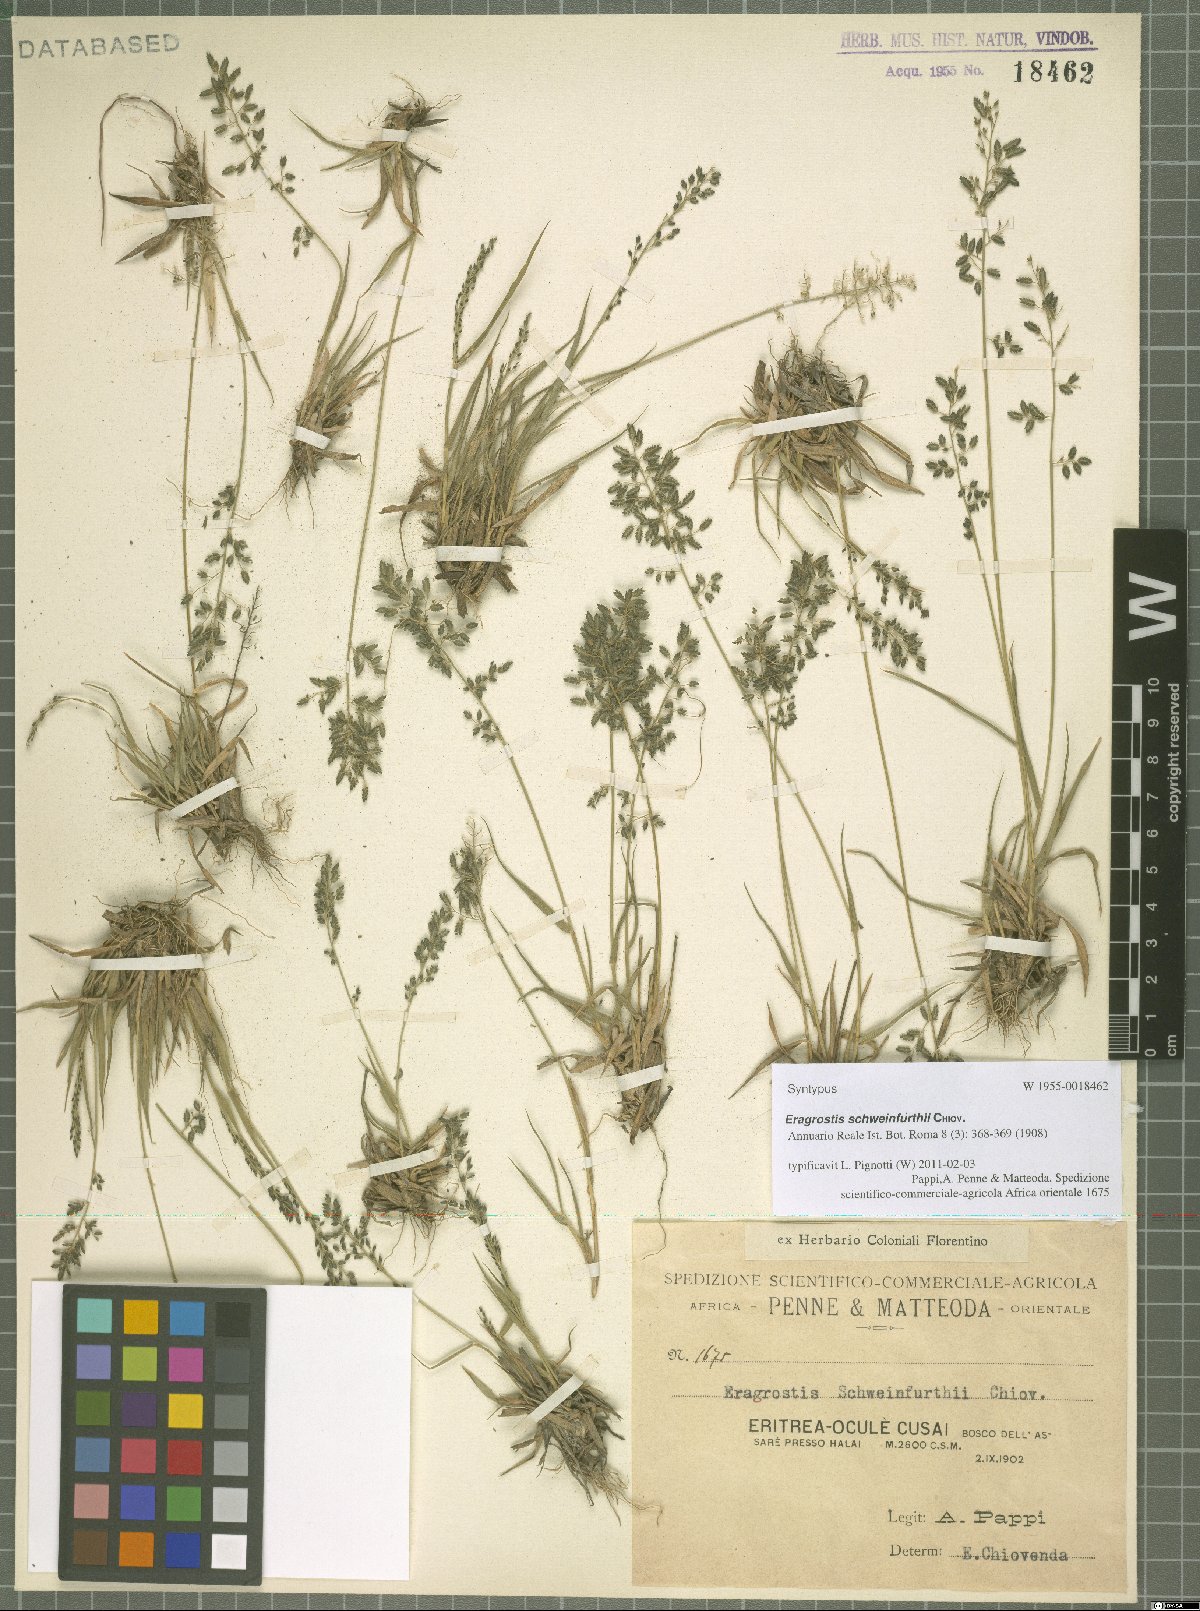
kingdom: Plantae
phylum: Tracheophyta
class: Liliopsida
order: Poales
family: Poaceae
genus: Eragrostis
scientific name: Eragrostis schweinfurthii
